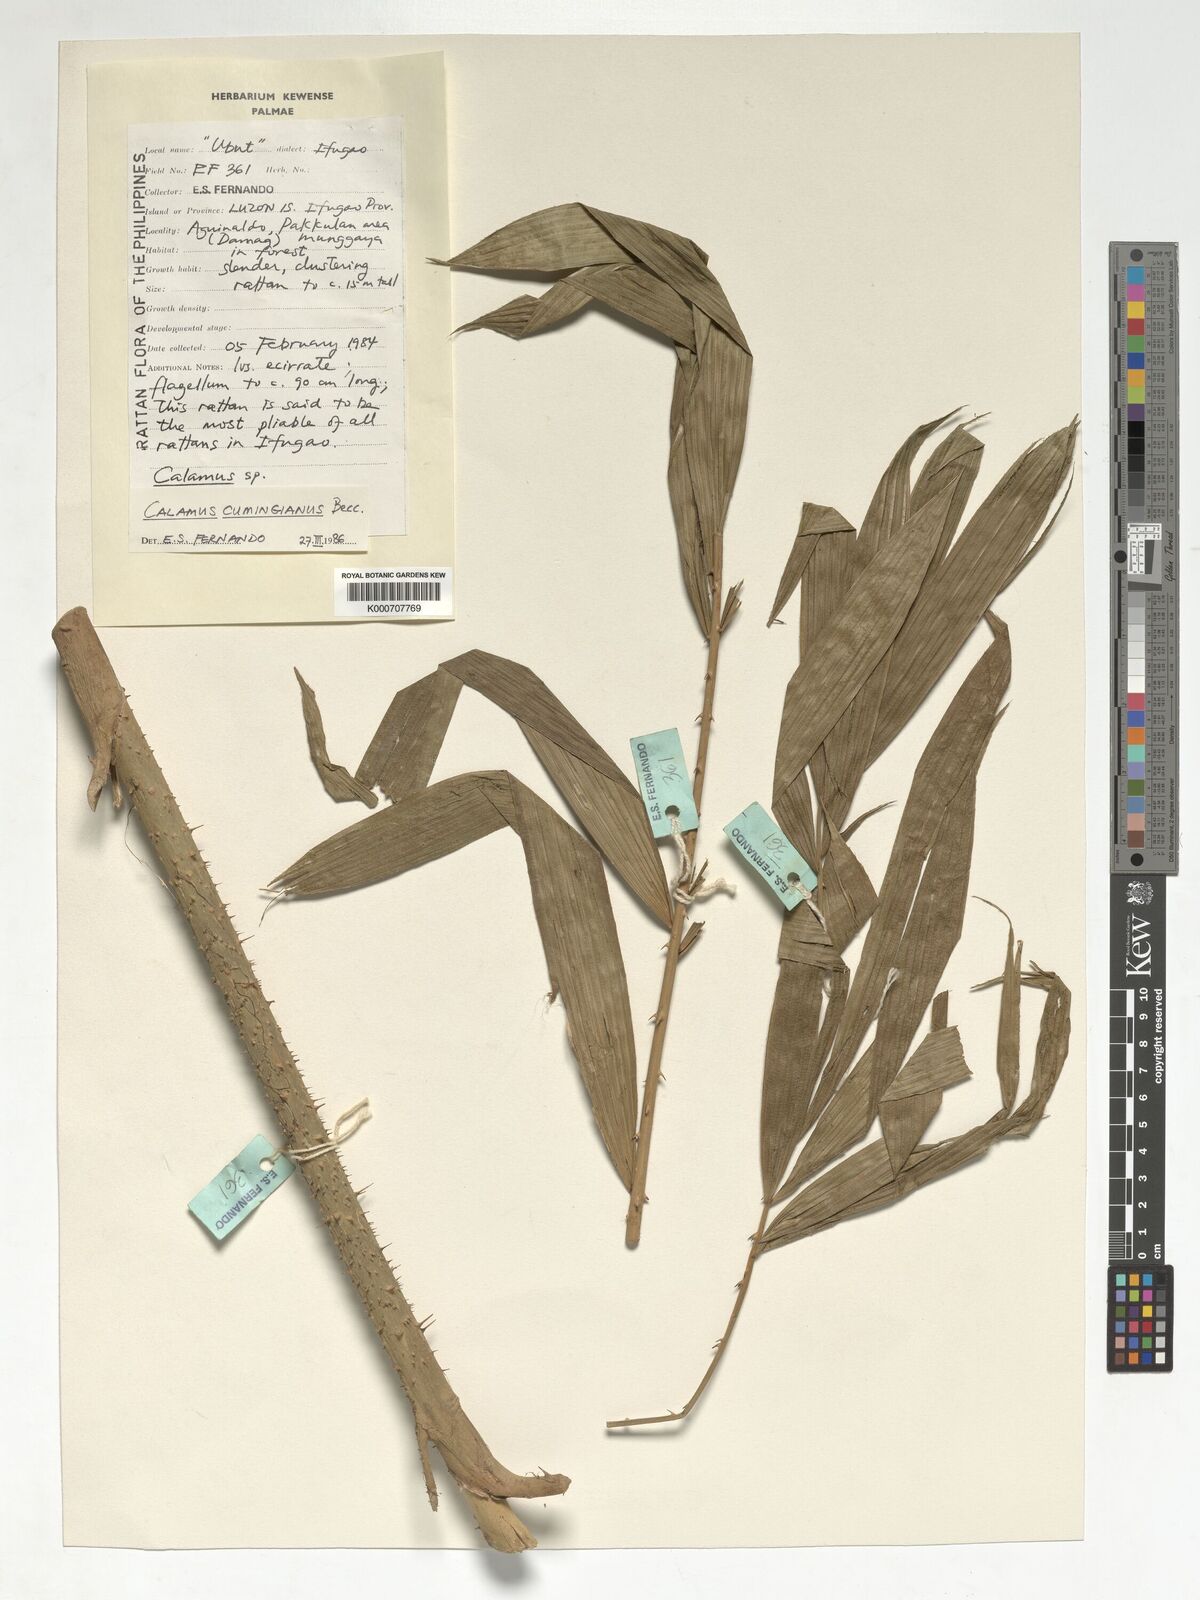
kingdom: Plantae
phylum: Tracheophyta
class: Liliopsida
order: Arecales
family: Arecaceae
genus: Calamus
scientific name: Calamus cumingianus
